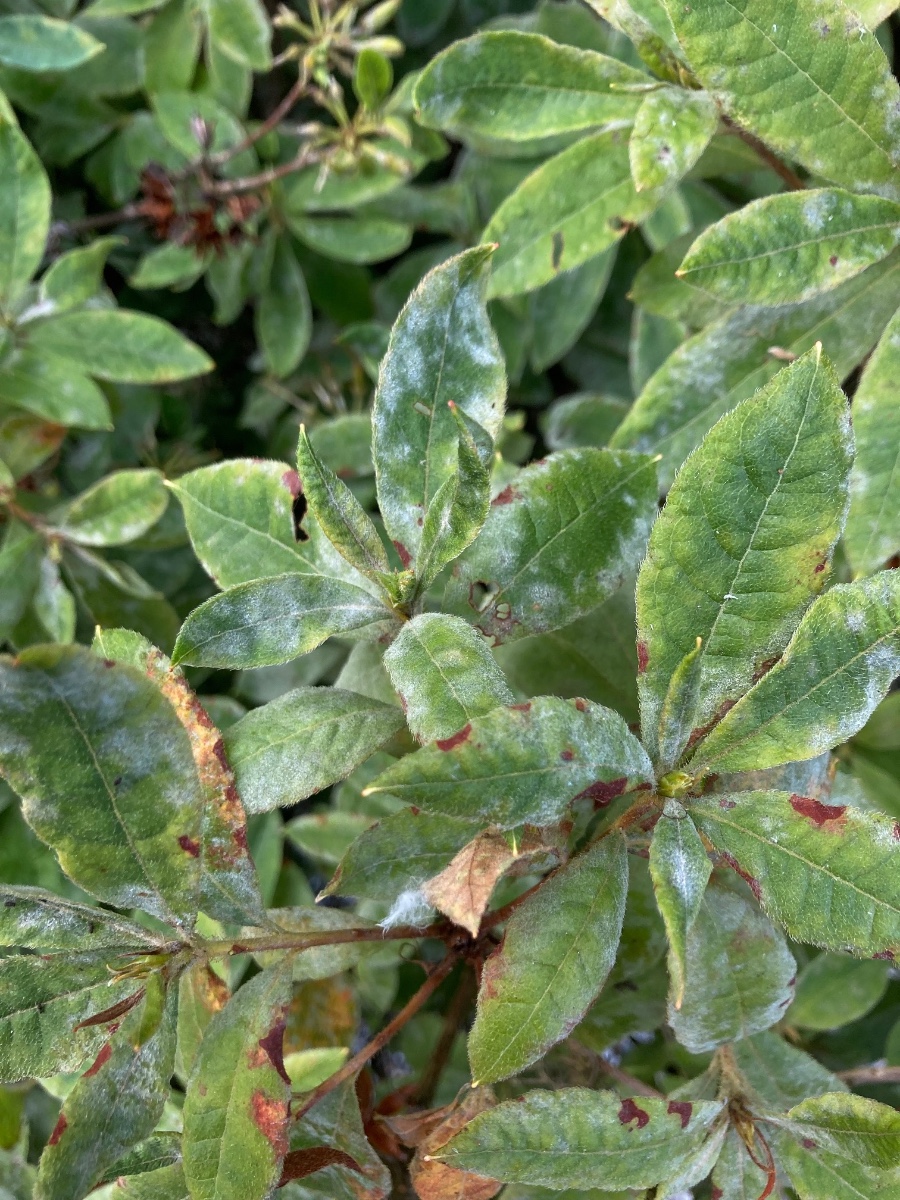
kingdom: Fungi
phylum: Ascomycota
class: Leotiomycetes
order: Helotiales
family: Erysiphaceae
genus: Erysiphe
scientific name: Erysiphe azaleae
